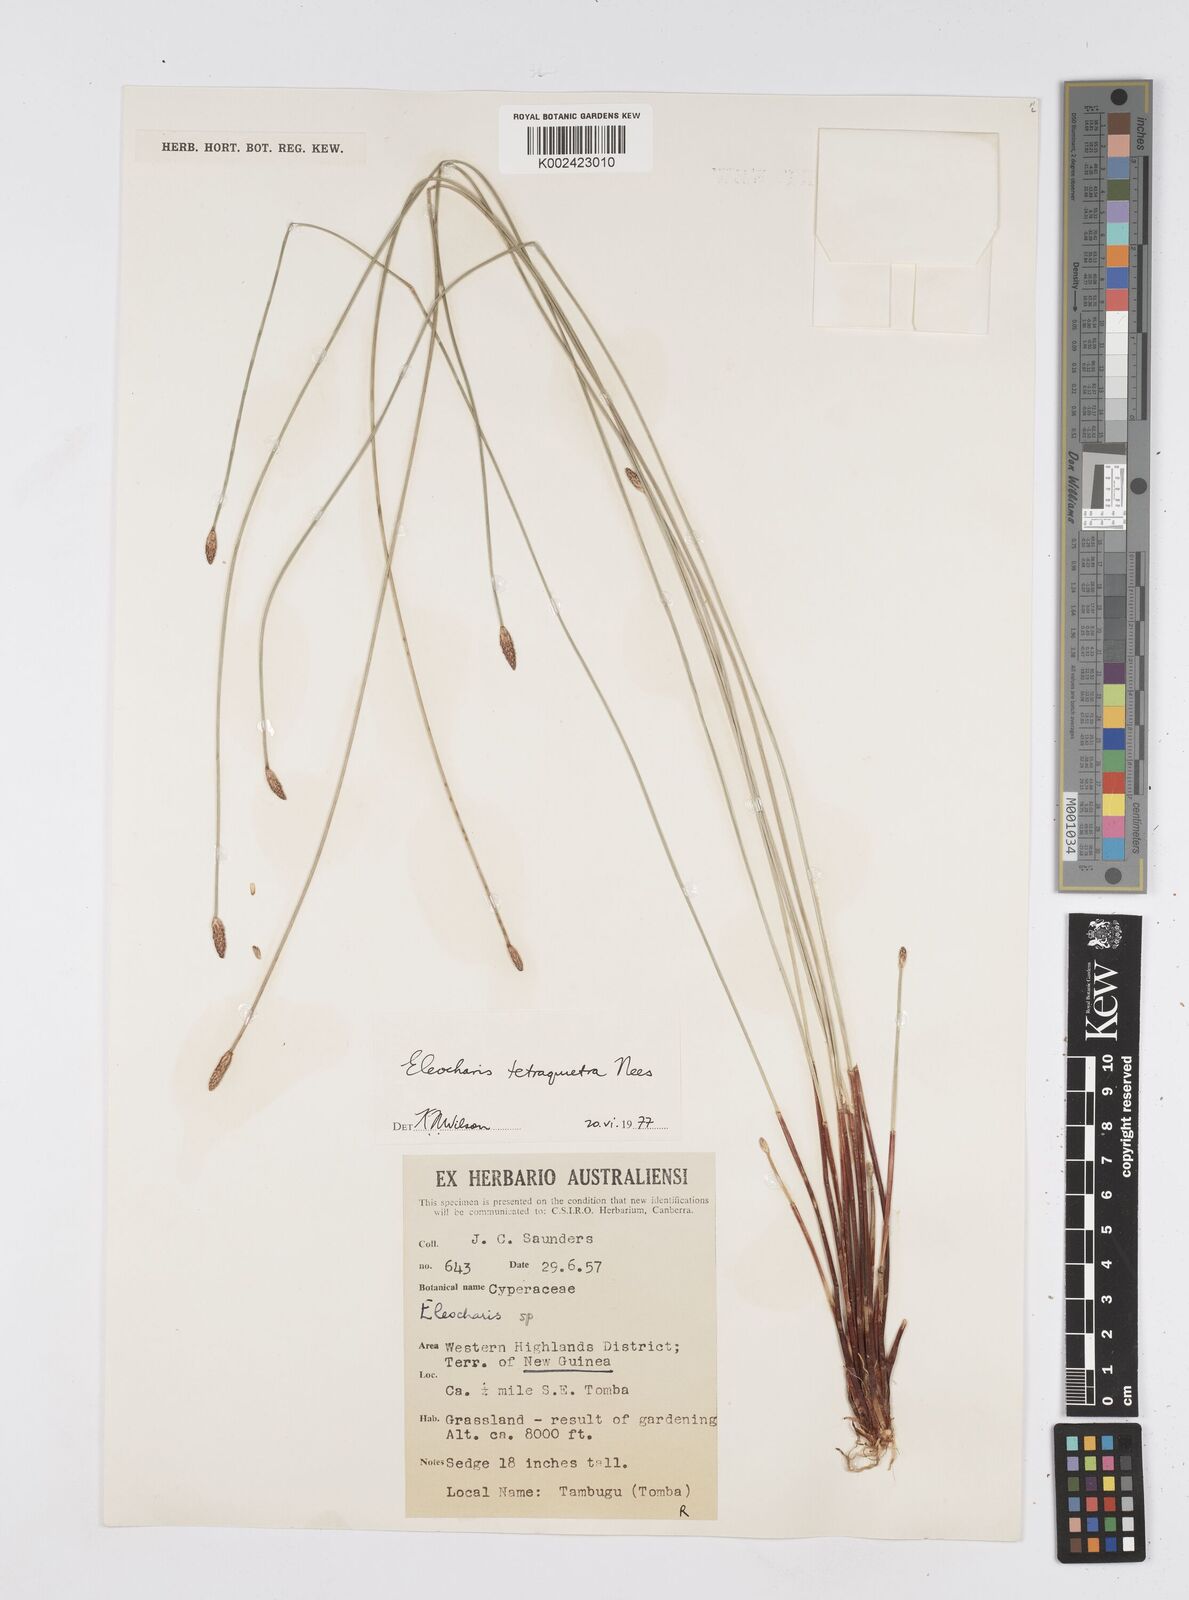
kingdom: Plantae
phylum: Tracheophyta
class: Liliopsida
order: Poales
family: Cyperaceae
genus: Eleocharis
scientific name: Eleocharis tetraquetra
